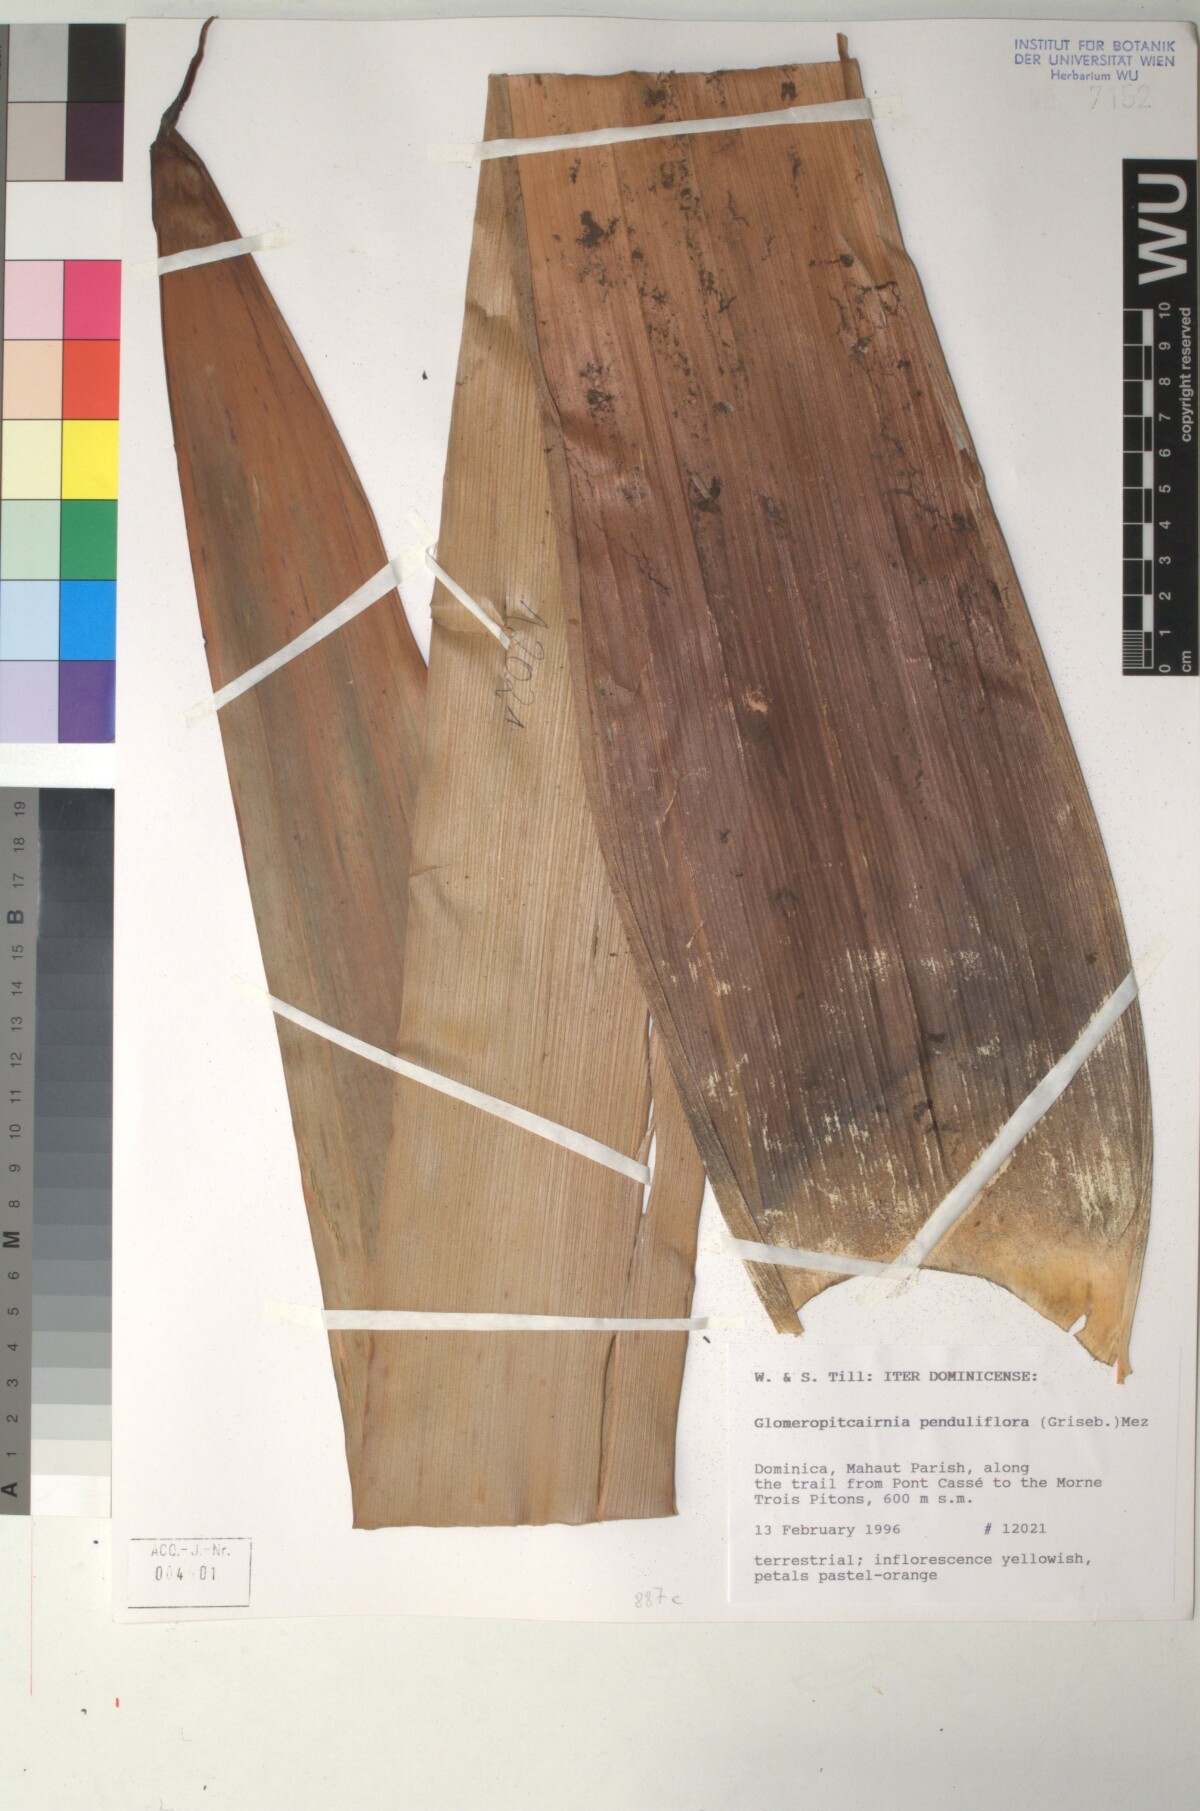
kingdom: Plantae
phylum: Tracheophyta
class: Liliopsida
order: Poales
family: Bromeliaceae
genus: Glomeropitcairnia
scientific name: Glomeropitcairnia penduliflora
